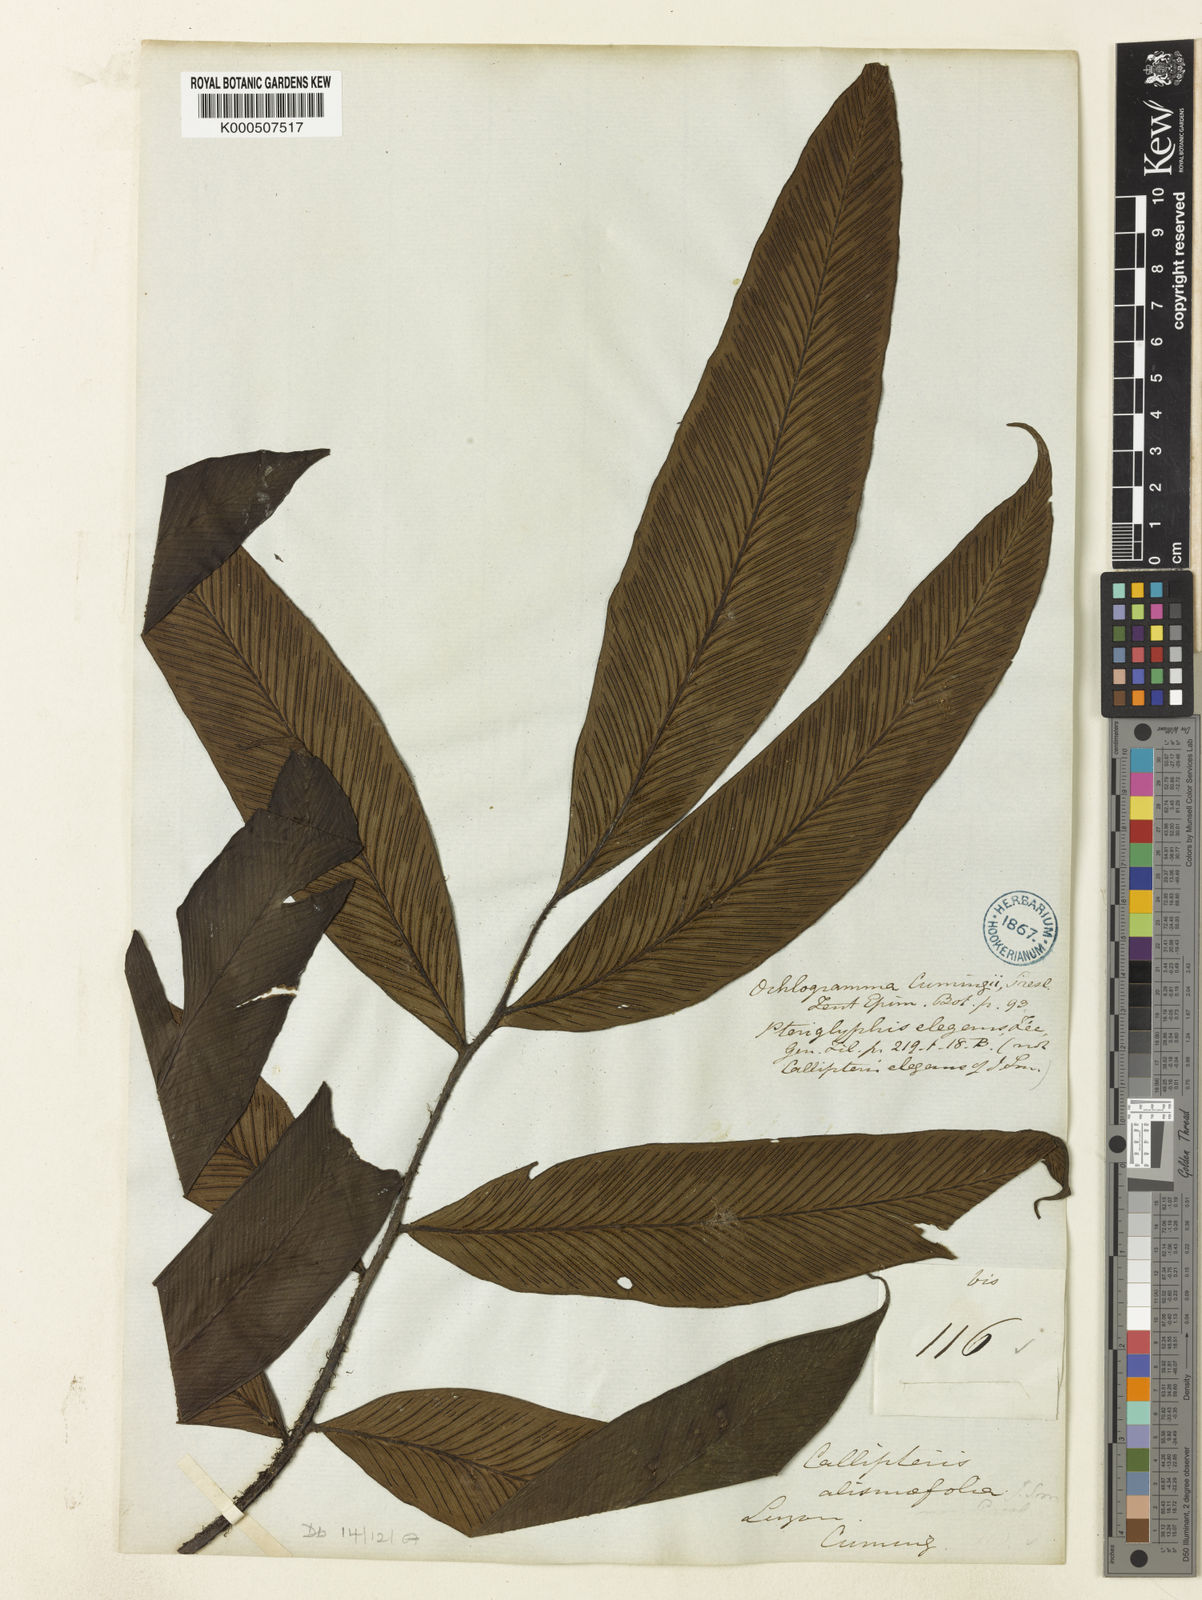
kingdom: Plantae
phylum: Tracheophyta
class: Polypodiopsida
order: Polypodiales
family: Athyriaceae
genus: Diplazium
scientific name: Diplazium cumingii
